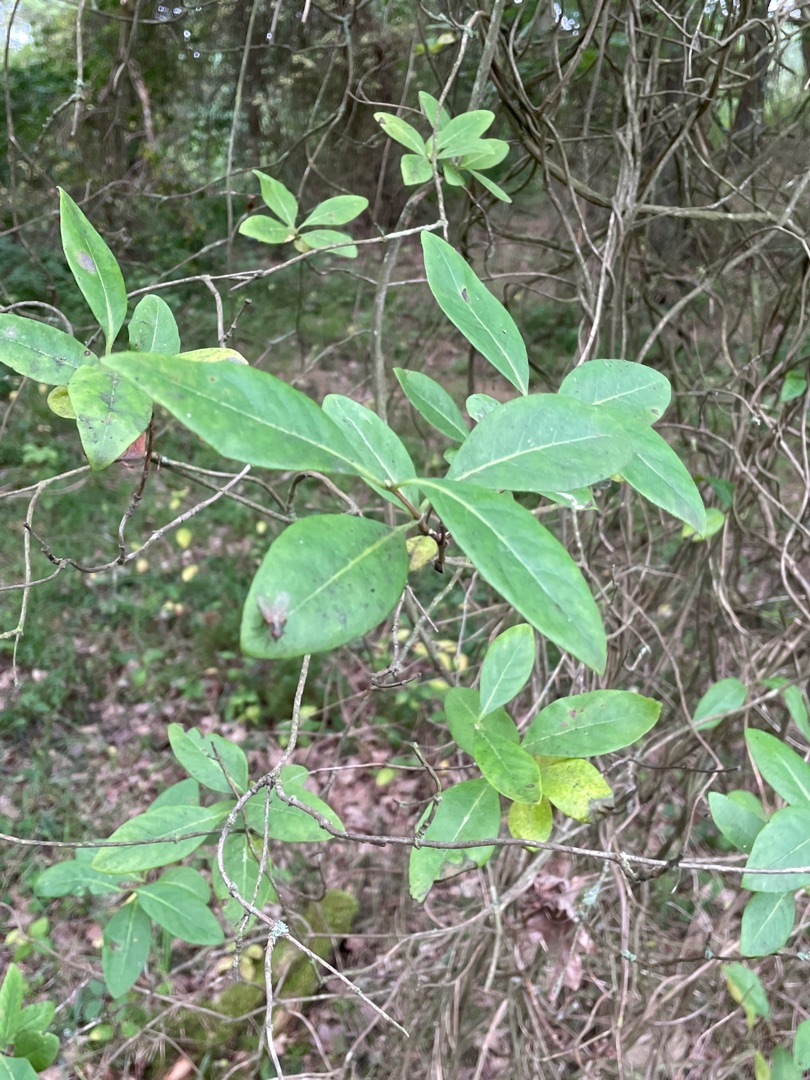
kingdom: Plantae
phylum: Tracheophyta
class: Magnoliopsida
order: Dipsacales
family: Caprifoliaceae
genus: Lonicera
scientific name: Lonicera periclymenum
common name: Almindelig gedeblad
